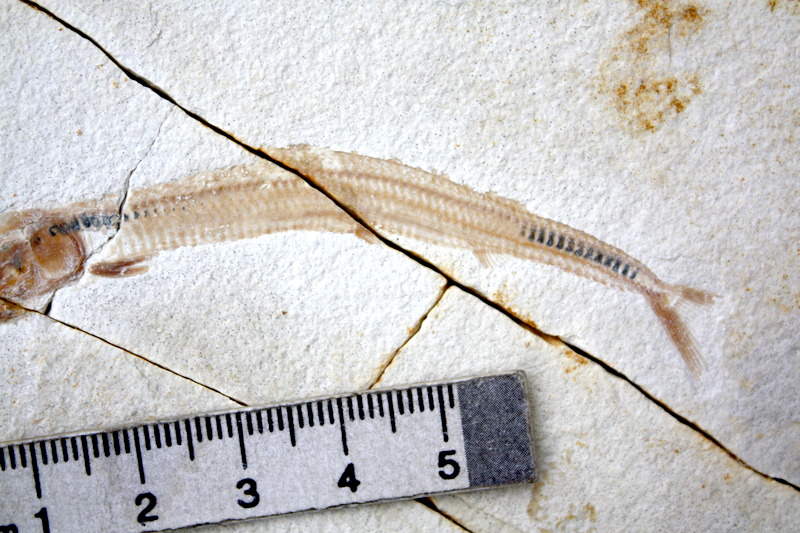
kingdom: Animalia
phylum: Chordata
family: Aspidorhynchidae
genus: Belonostomus
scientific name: Belonostomus kochii
